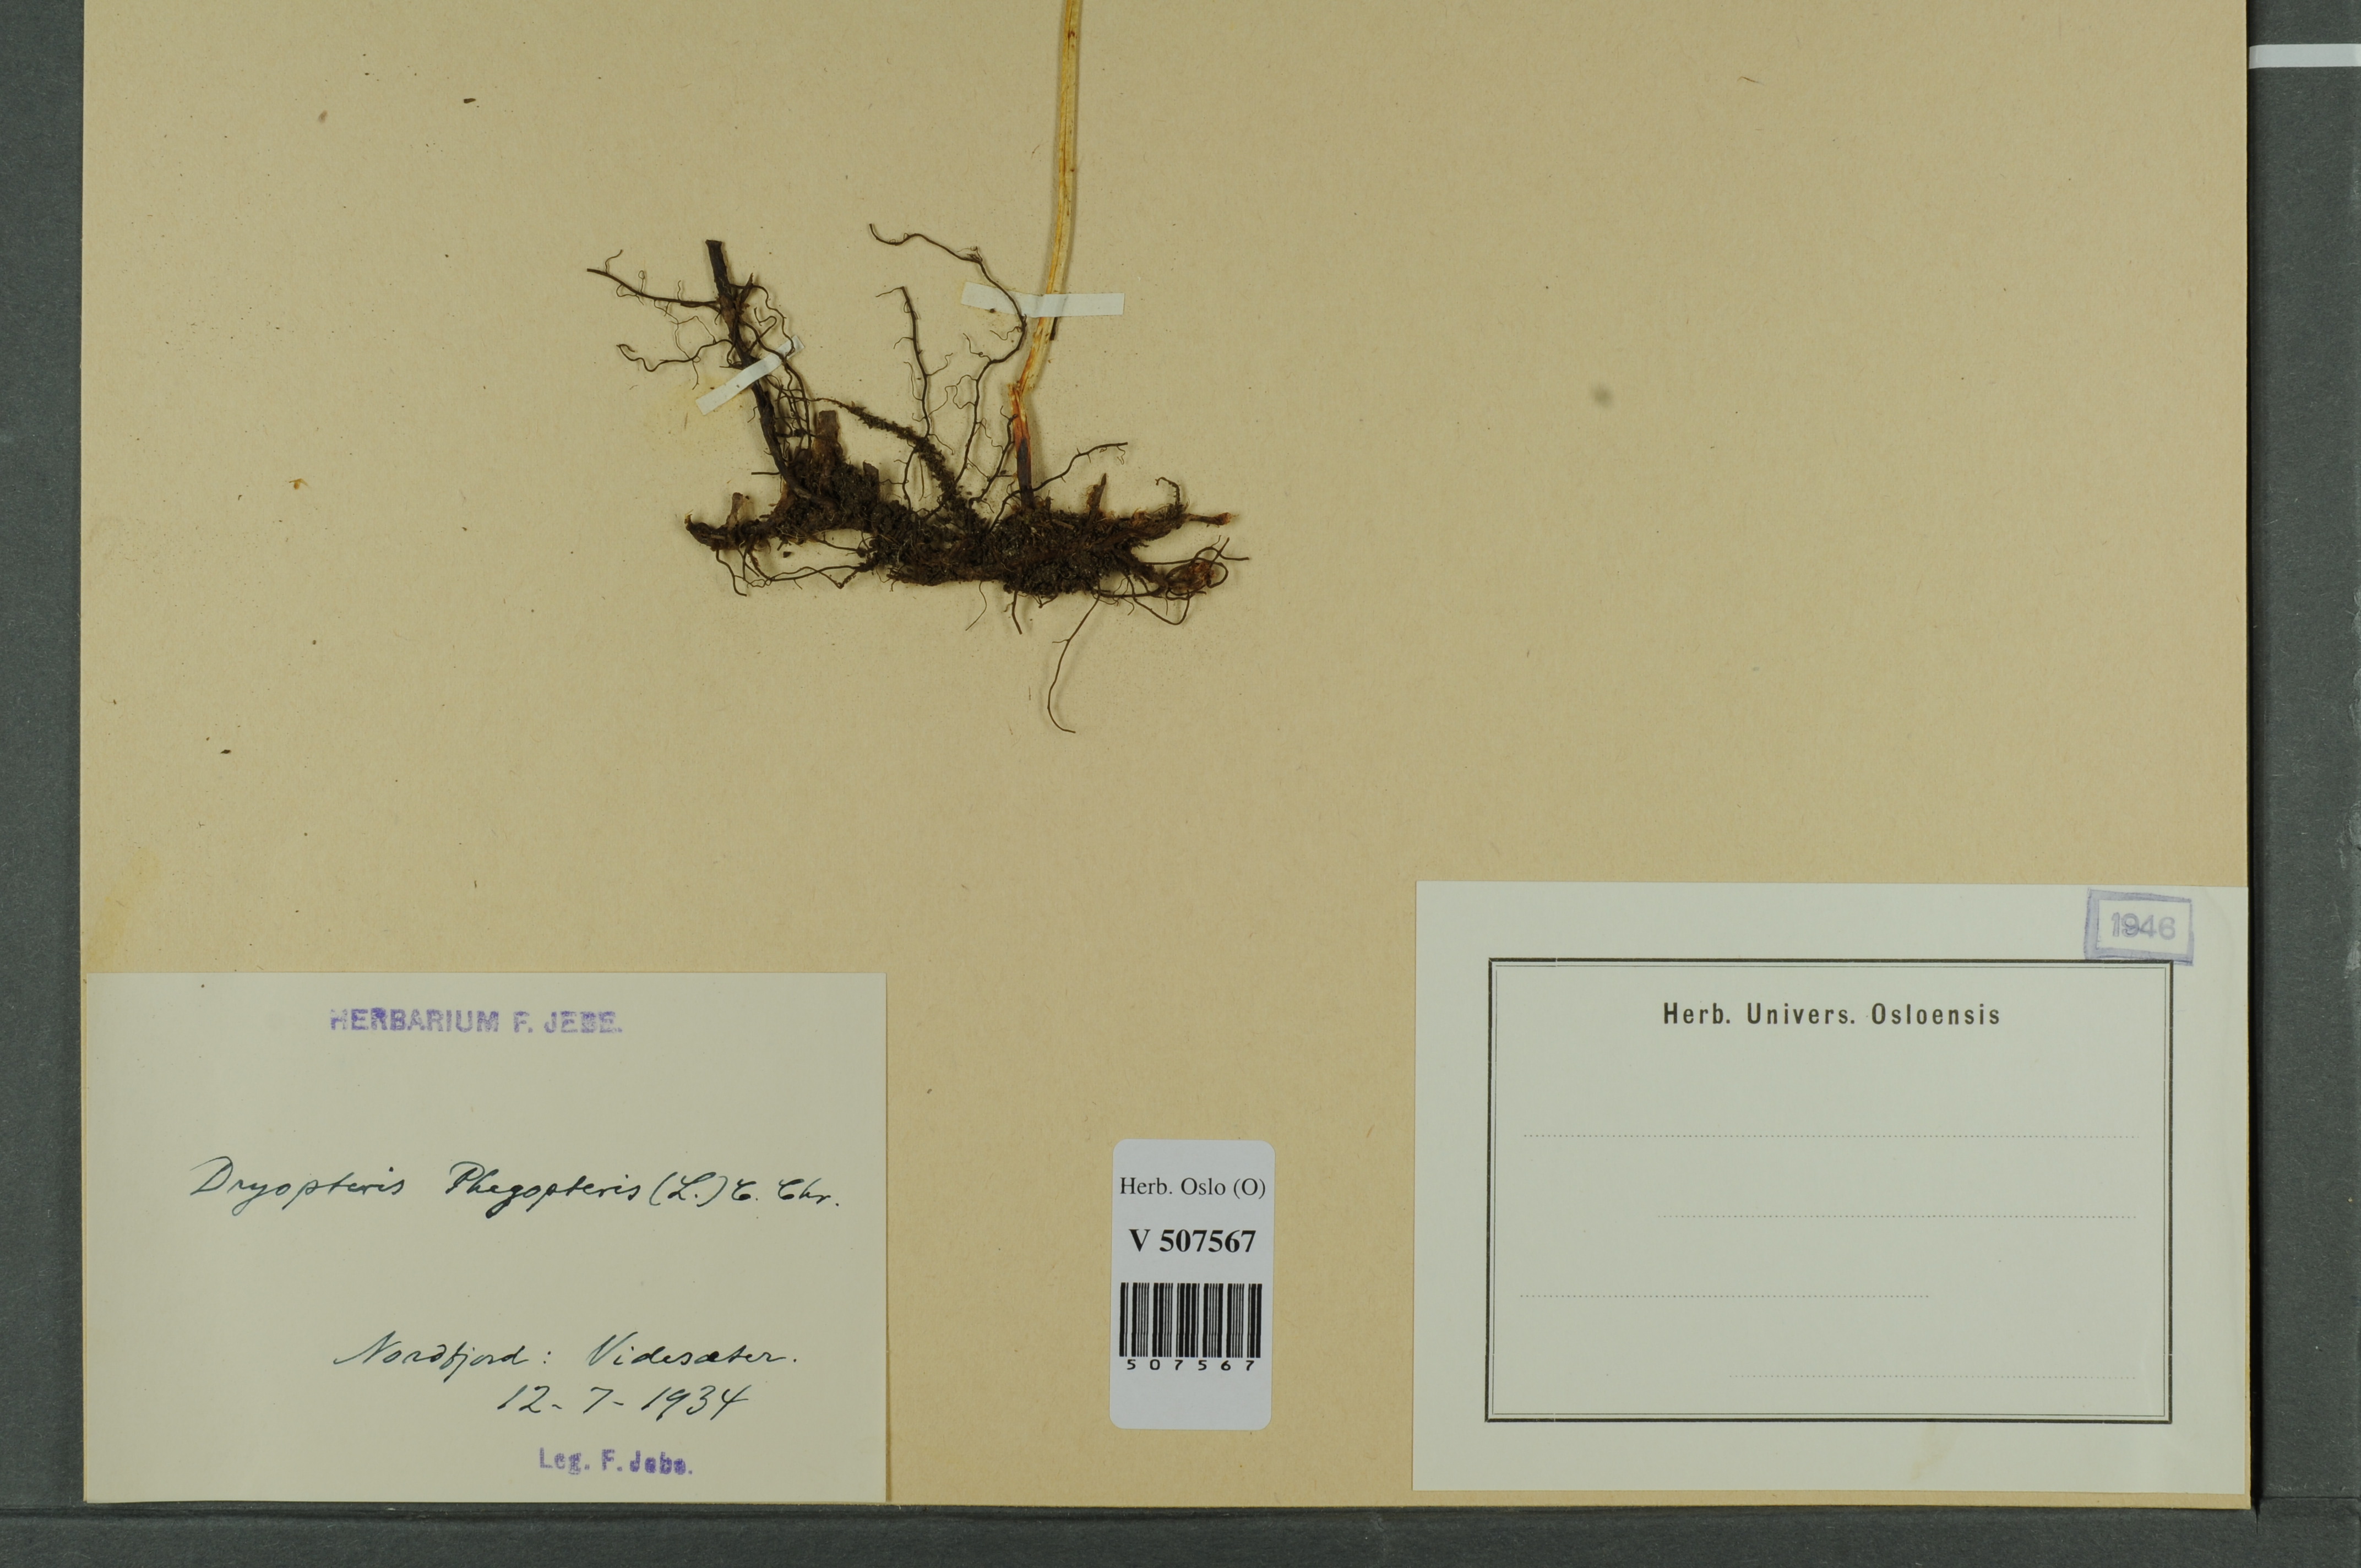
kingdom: Plantae
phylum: Tracheophyta
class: Polypodiopsida
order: Polypodiales
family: Thelypteridaceae
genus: Phegopteris
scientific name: Phegopteris connectilis
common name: Beech fern
